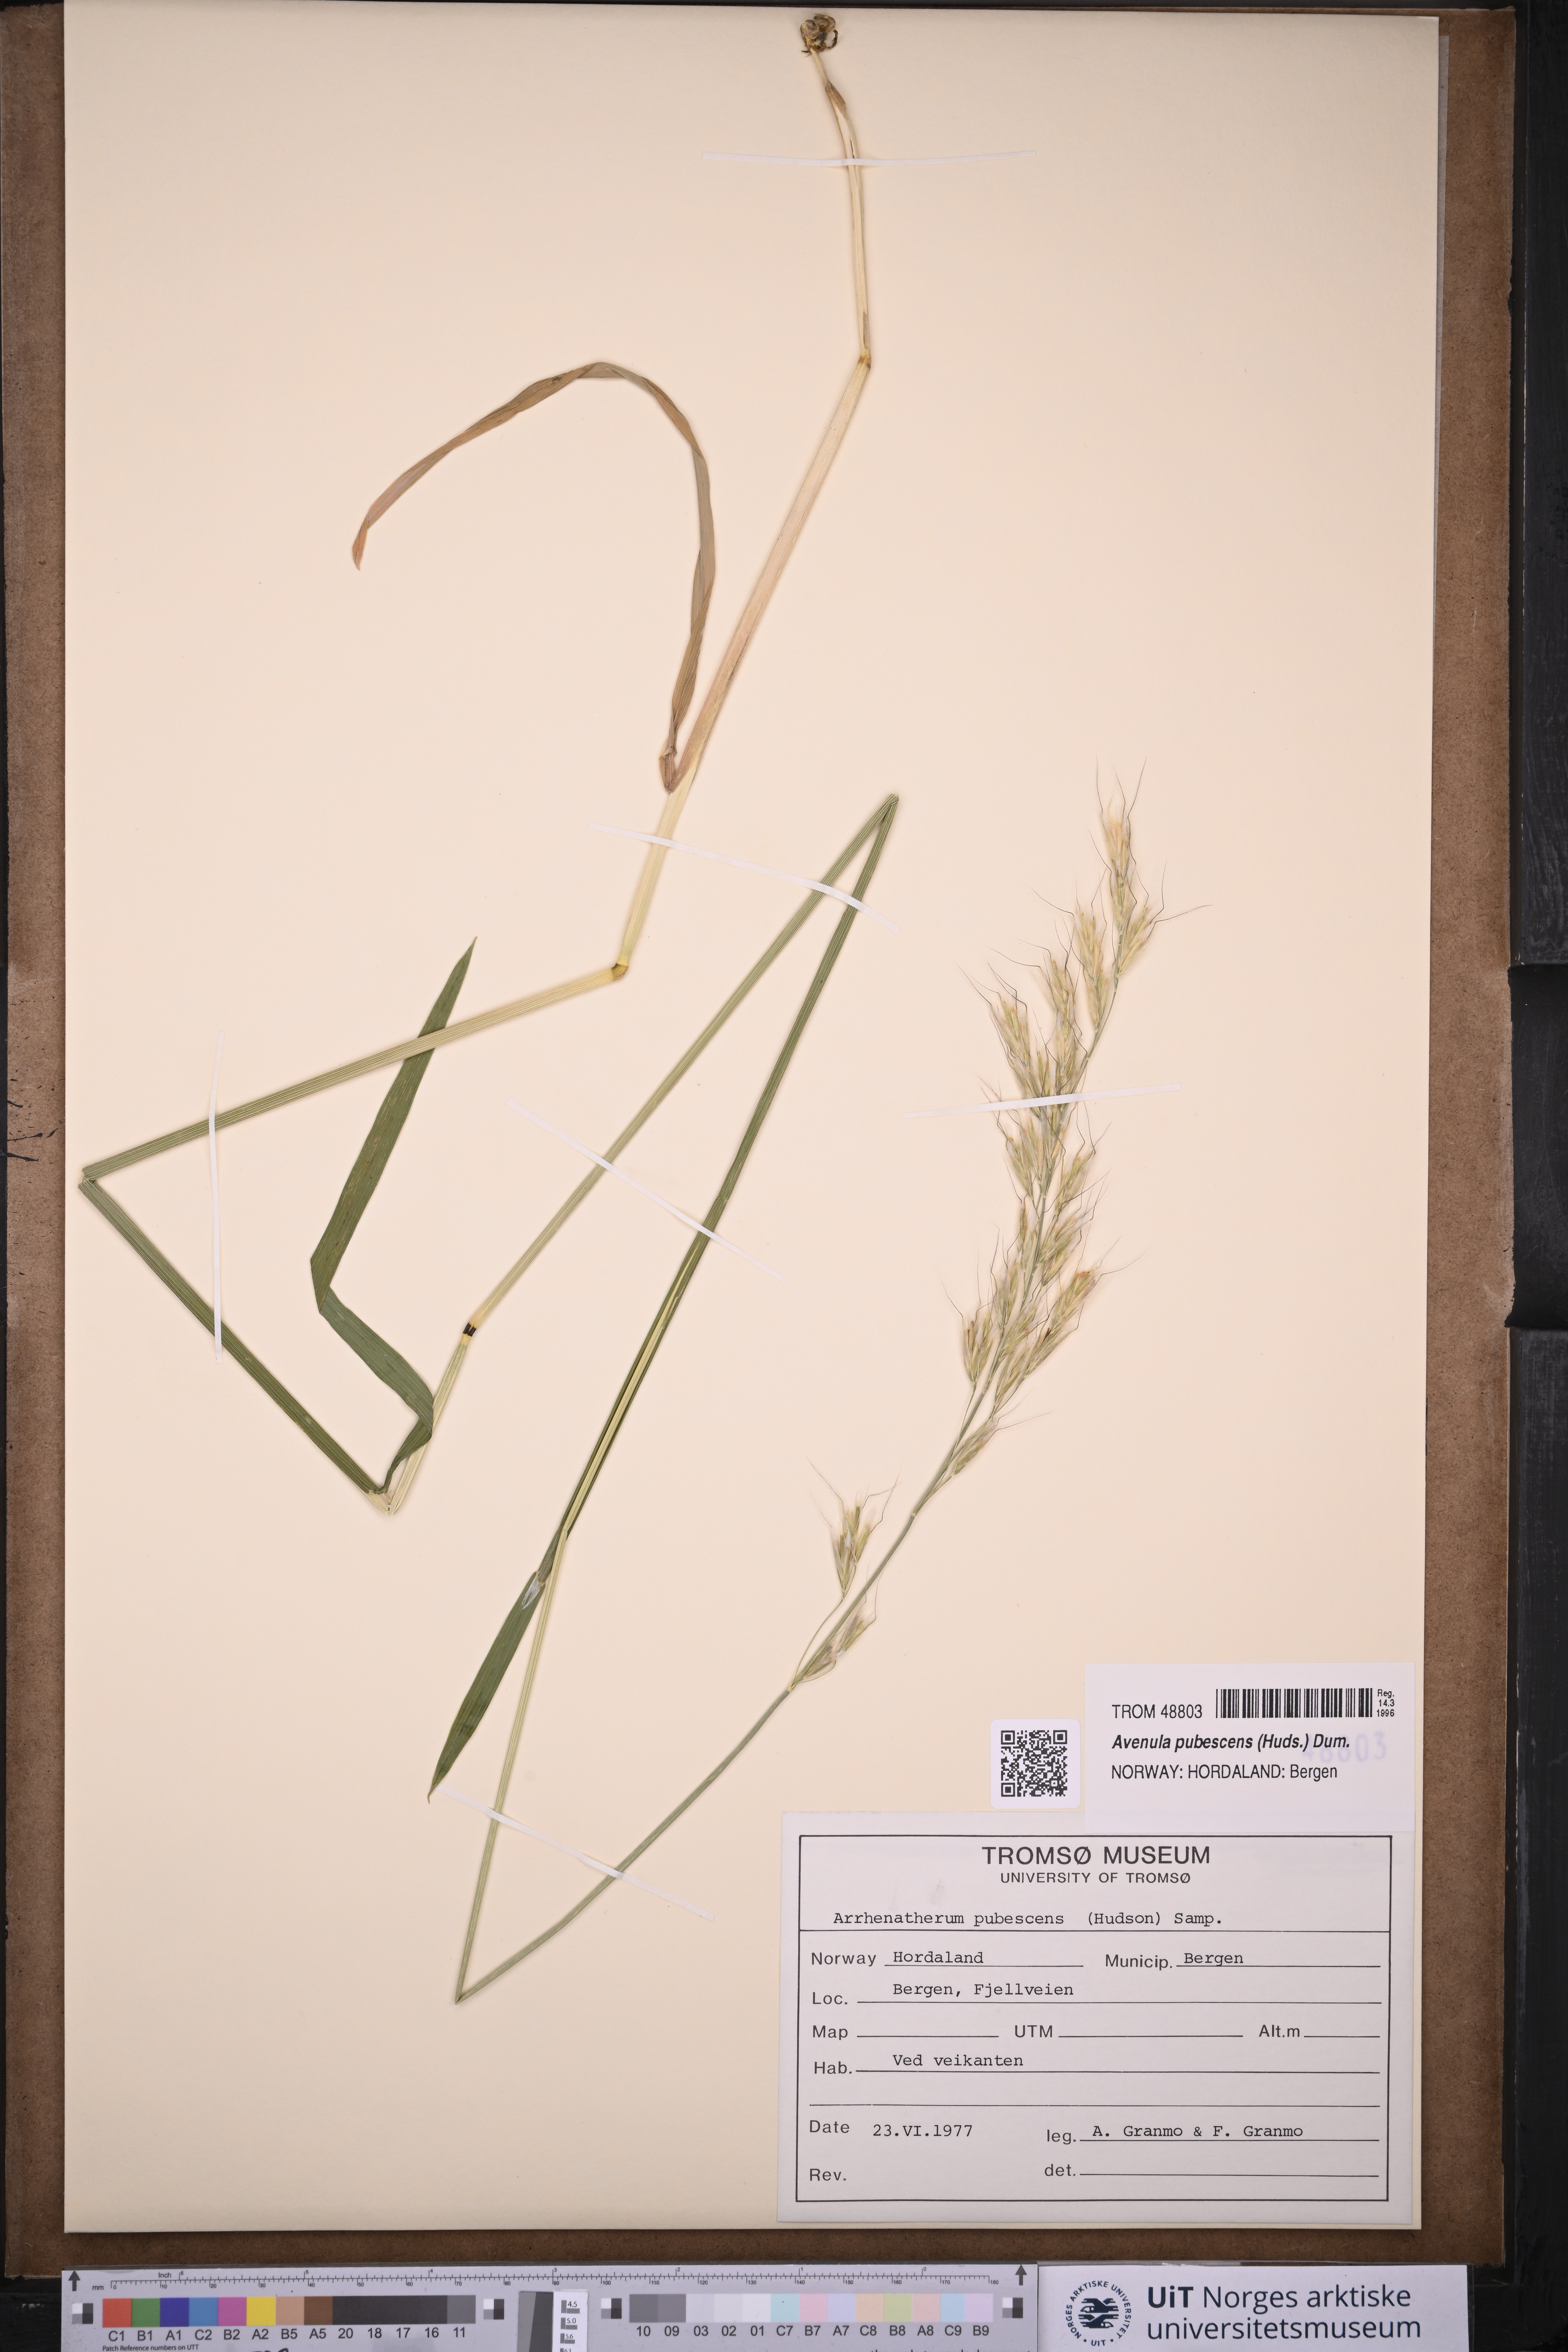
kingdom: Plantae
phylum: Tracheophyta
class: Liliopsida
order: Poales
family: Poaceae
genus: Avenula
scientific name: Avenula pubescens
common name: Downy alpine oatgrass
